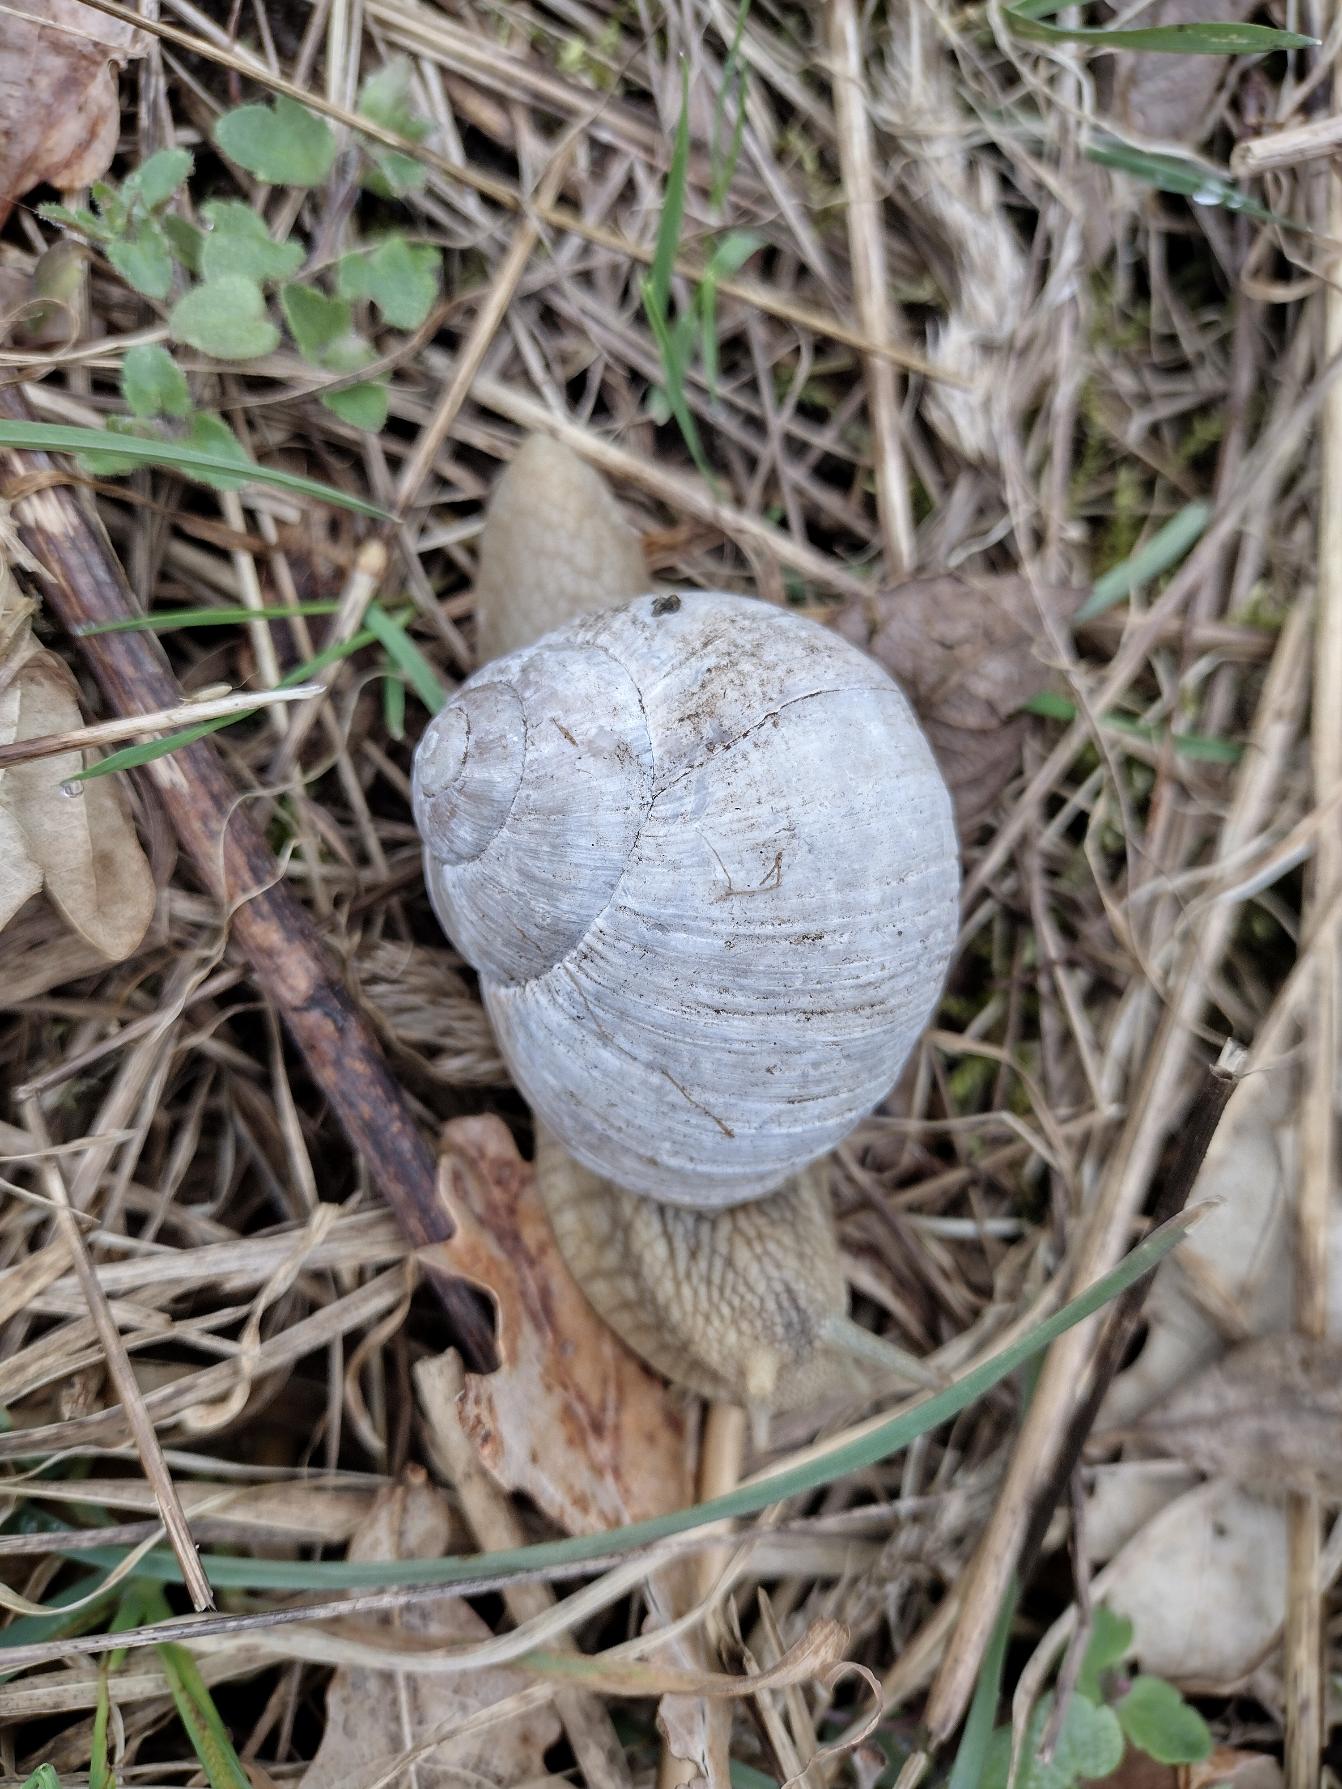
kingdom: Animalia
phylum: Mollusca
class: Gastropoda
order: Stylommatophora
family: Helicidae
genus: Helix
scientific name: Helix pomatia
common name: Vinbjergsnegl
